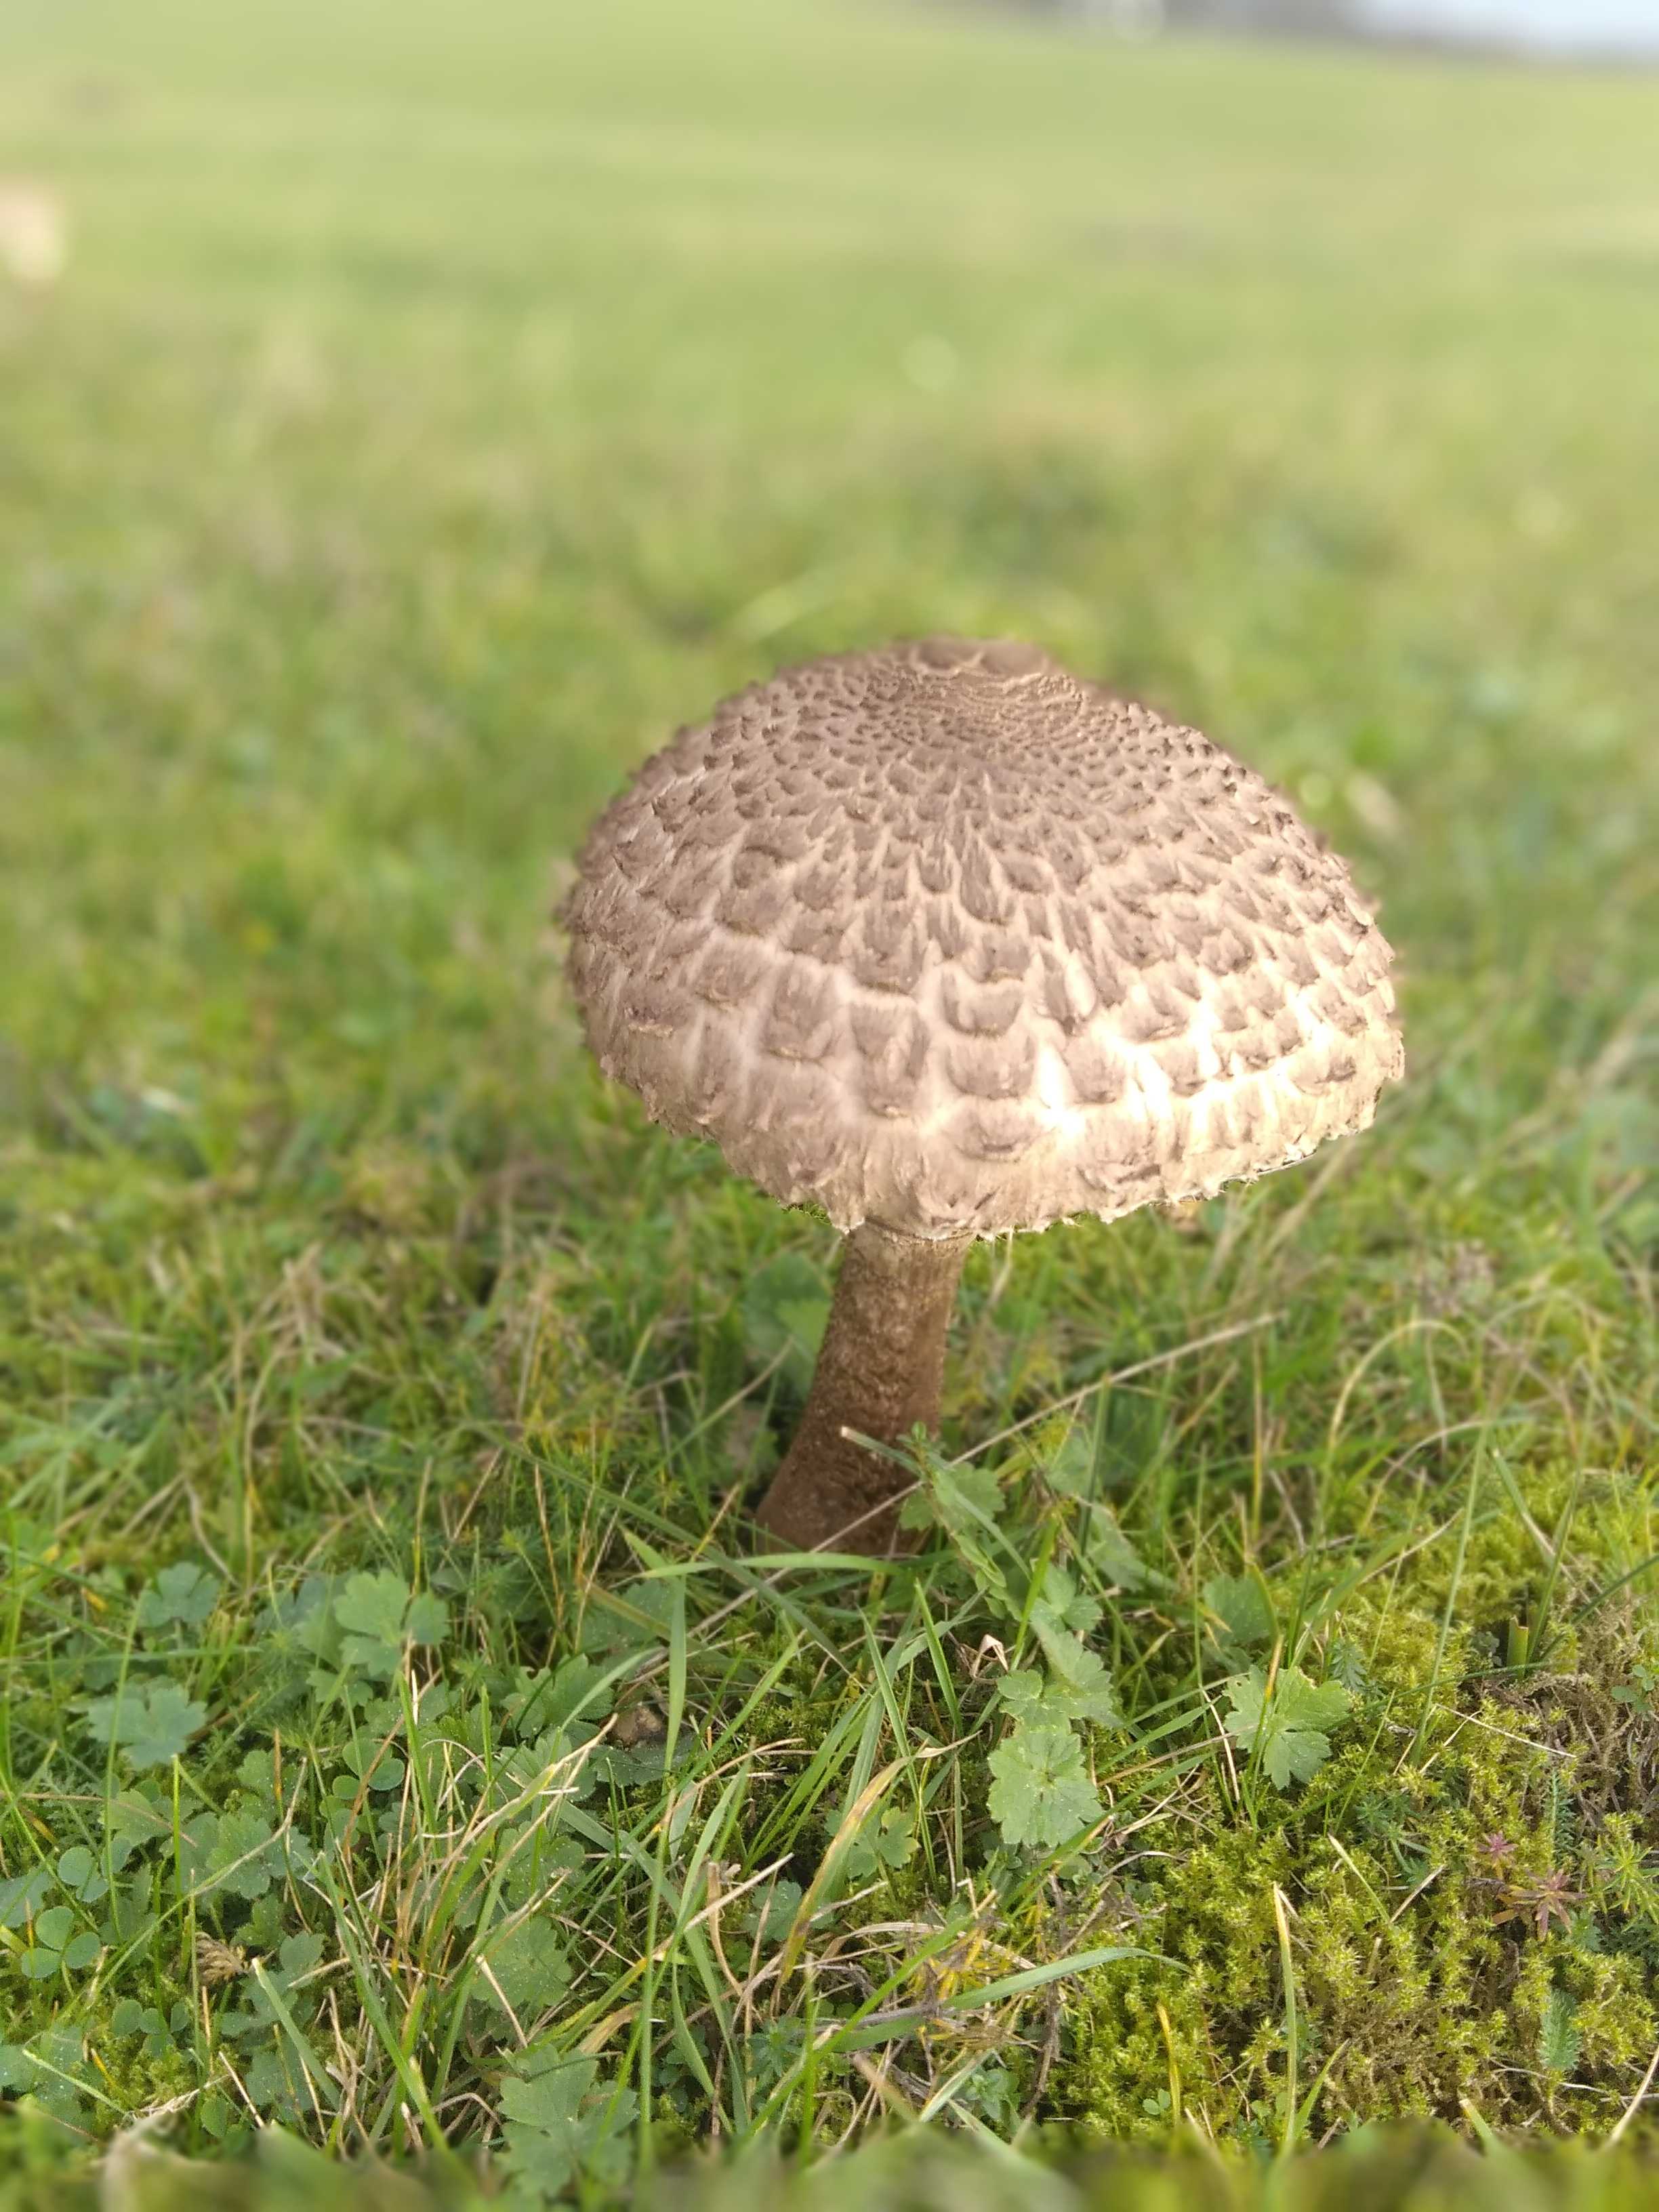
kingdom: Fungi
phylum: Basidiomycota
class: Agaricomycetes
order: Agaricales
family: Agaricaceae
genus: Macrolepiota
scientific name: Macrolepiota procera
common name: stor kæmpeparasolhat
